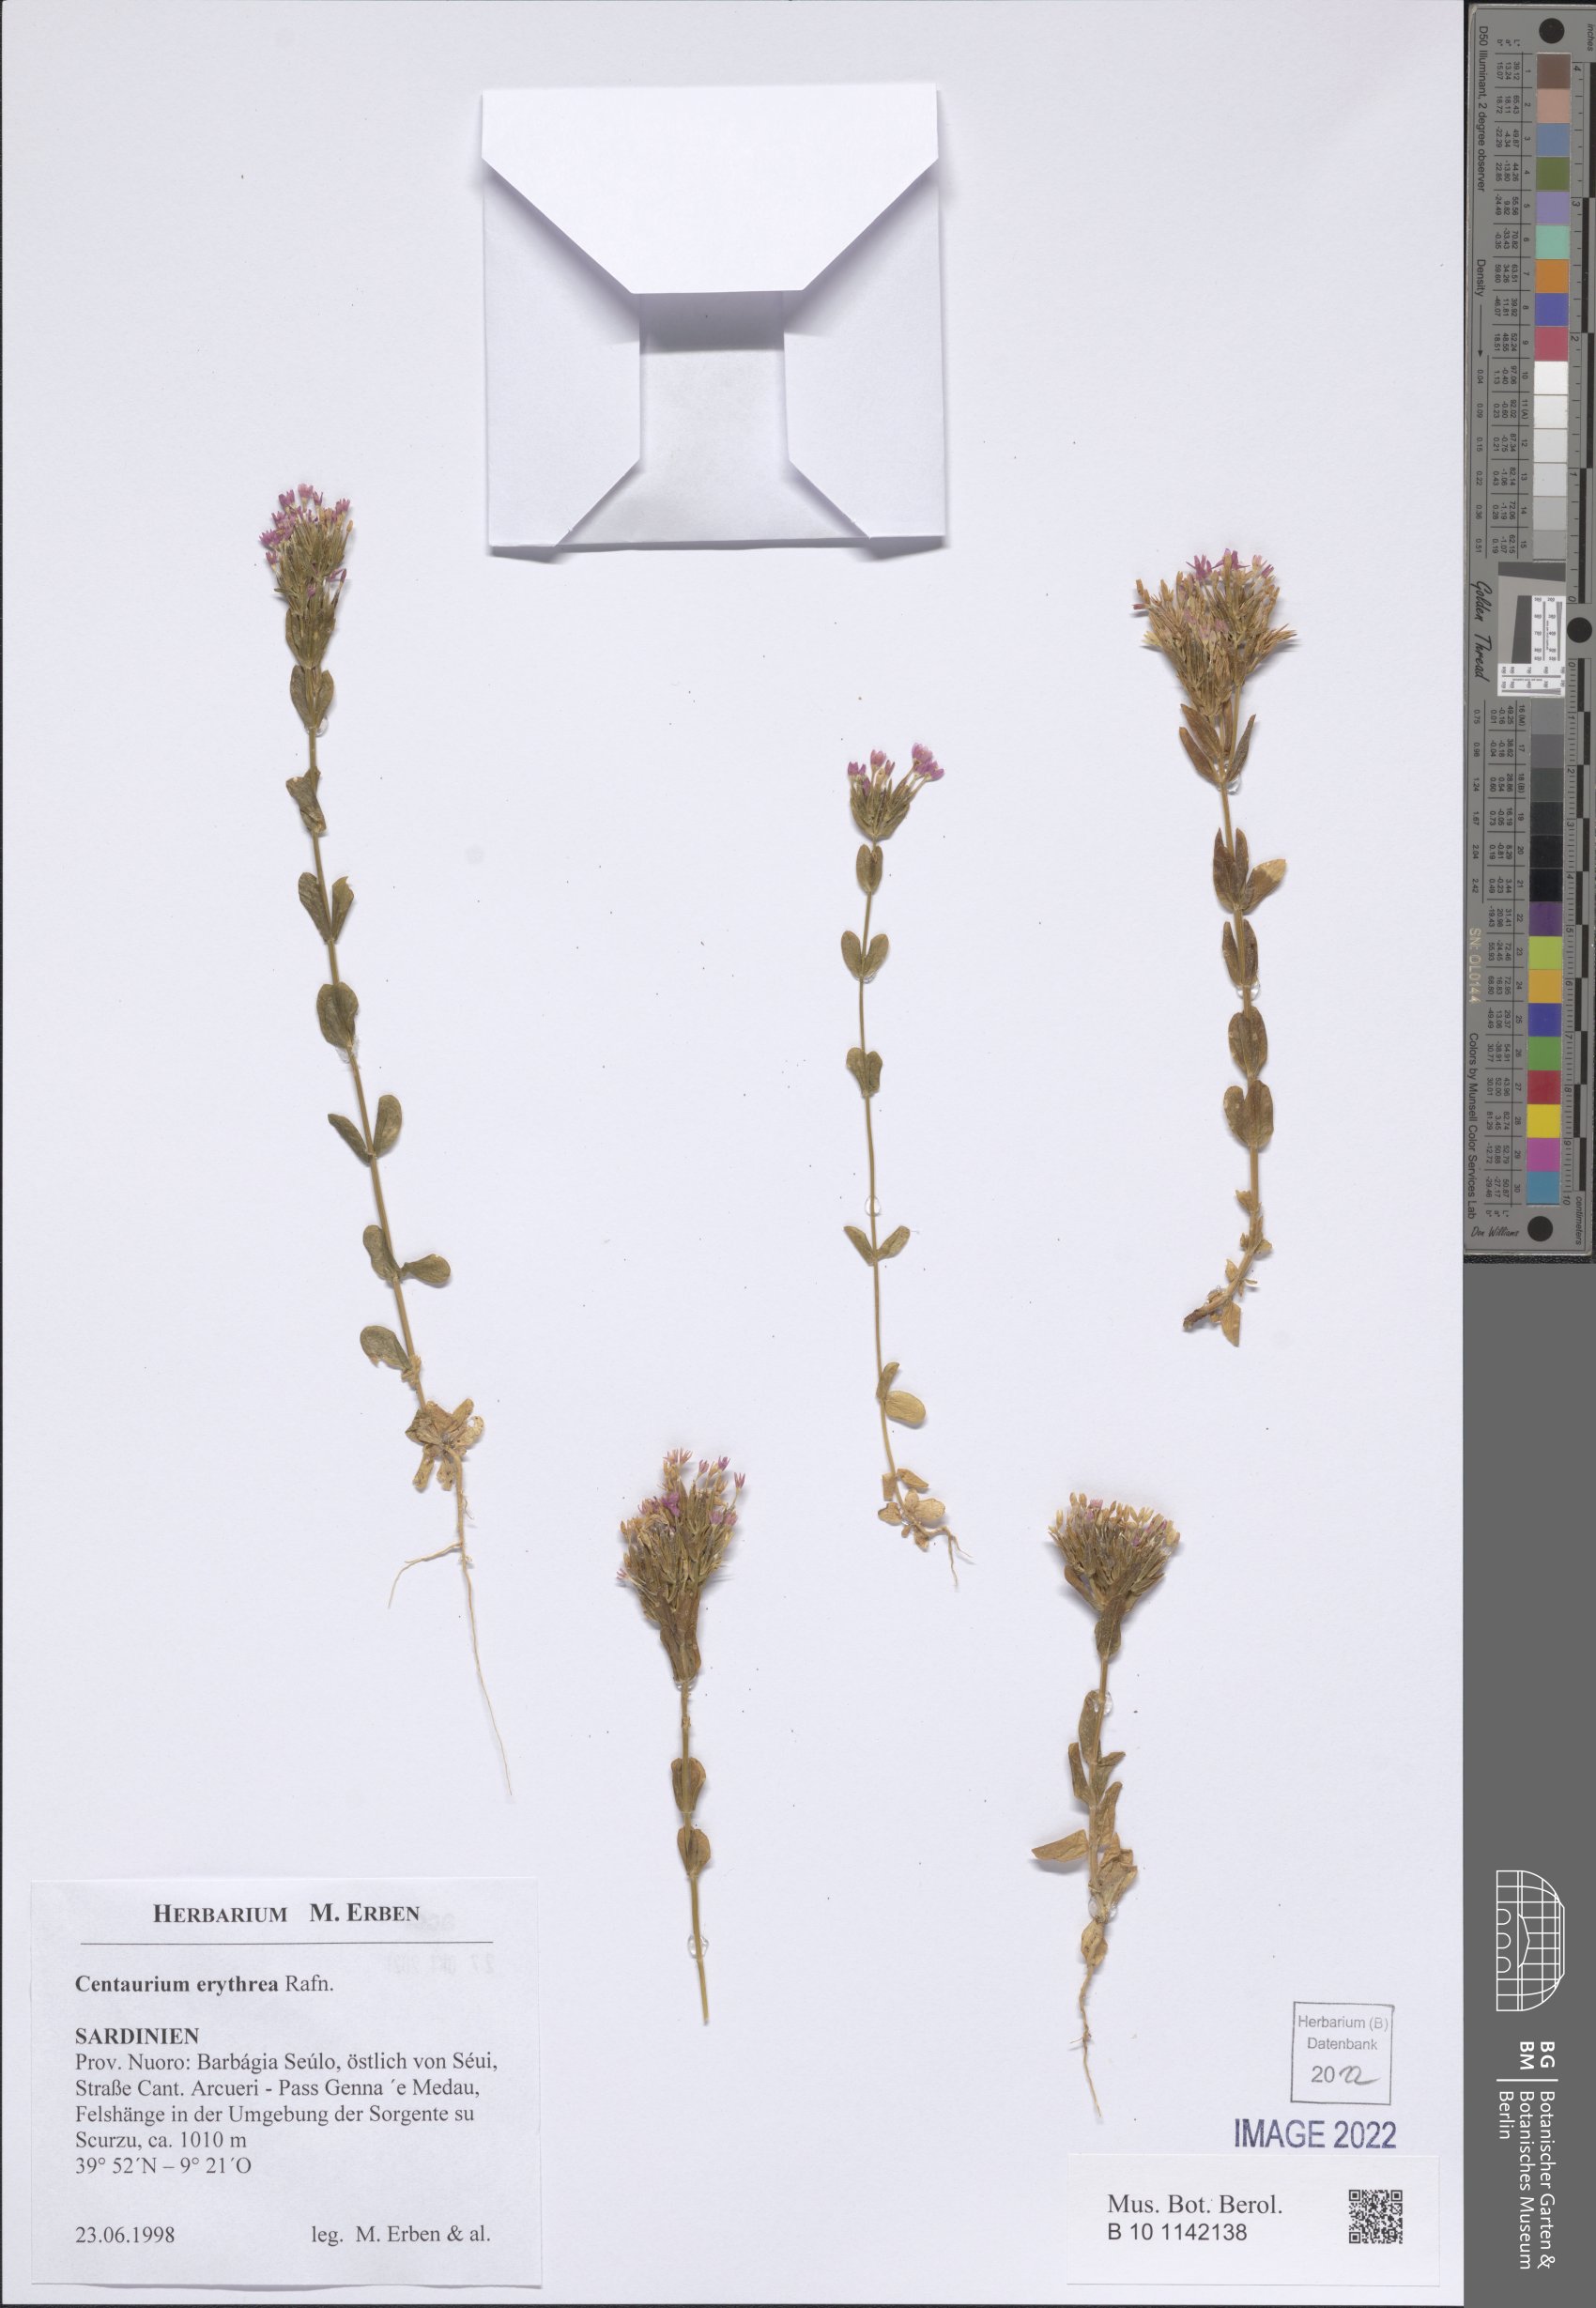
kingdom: Plantae
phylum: Tracheophyta
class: Magnoliopsida
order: Gentianales
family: Gentianaceae
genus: Centaurium
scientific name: Centaurium erythraea
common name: Common centaury
